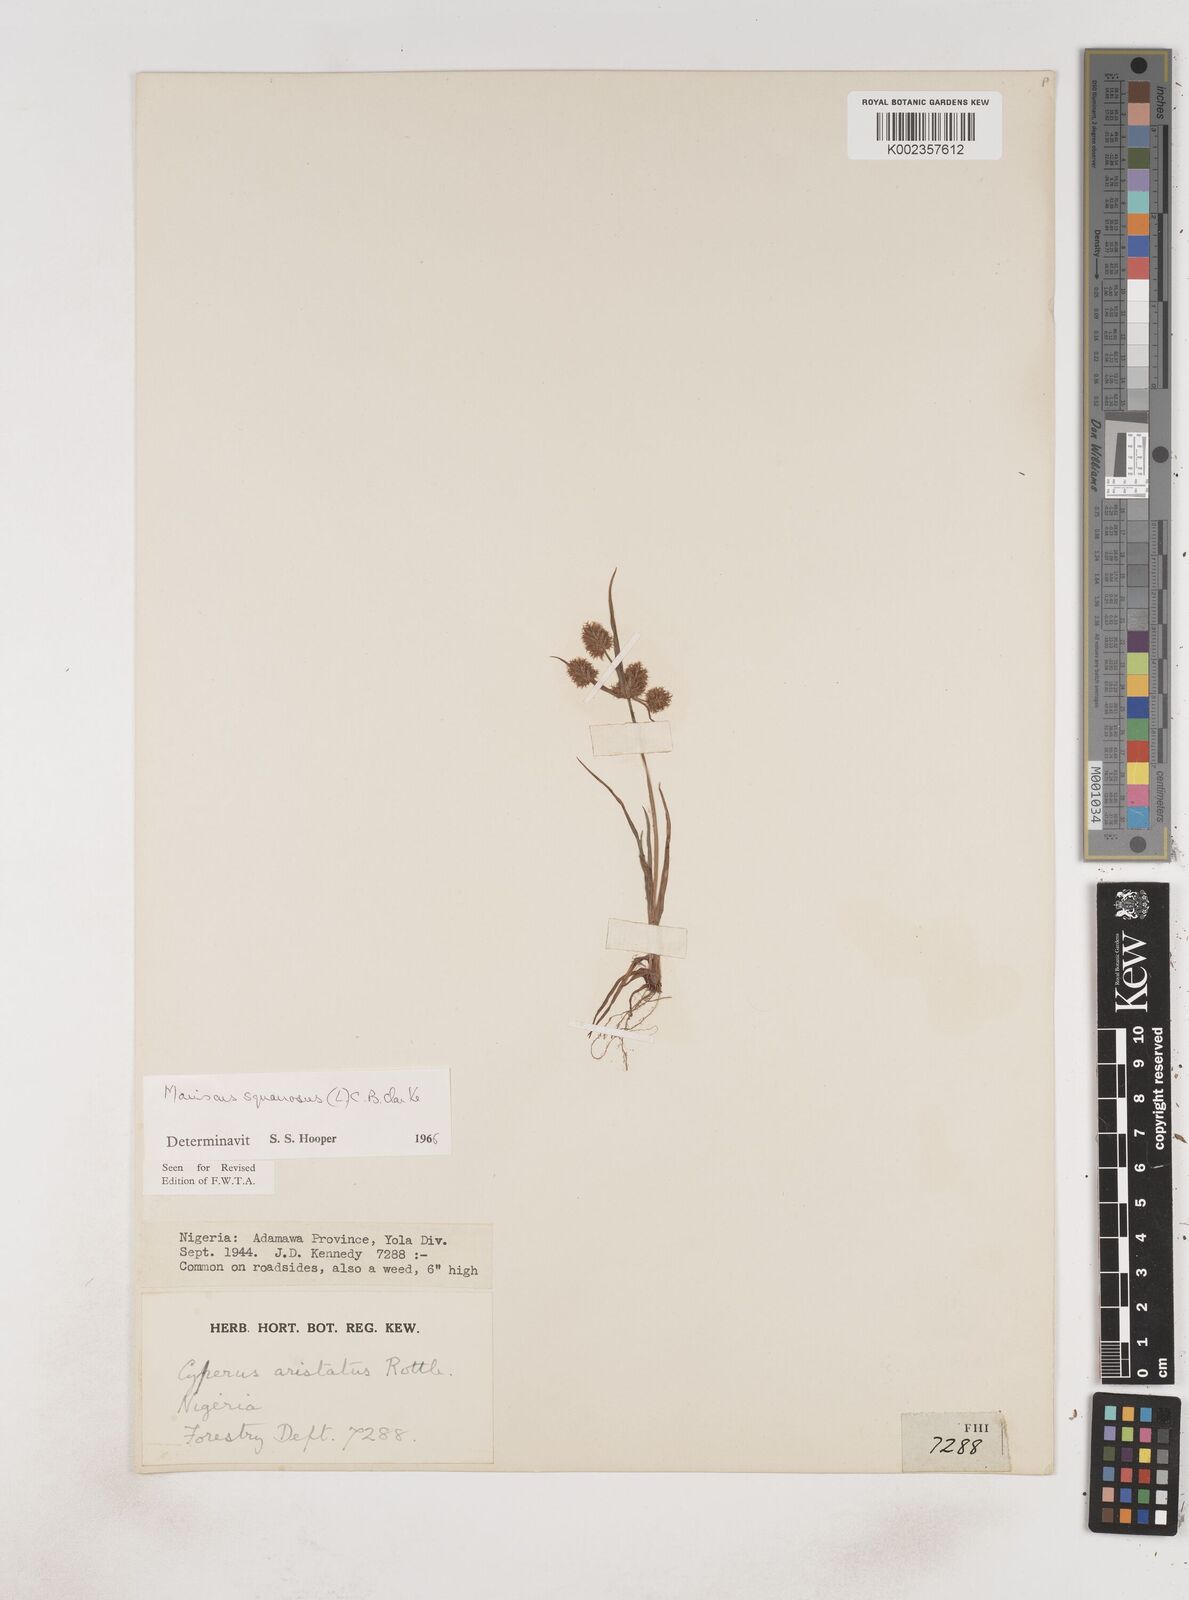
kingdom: Plantae
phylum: Tracheophyta
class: Liliopsida
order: Poales
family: Cyperaceae
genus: Cyperus
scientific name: Cyperus squarrosus
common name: Awned cyperus
